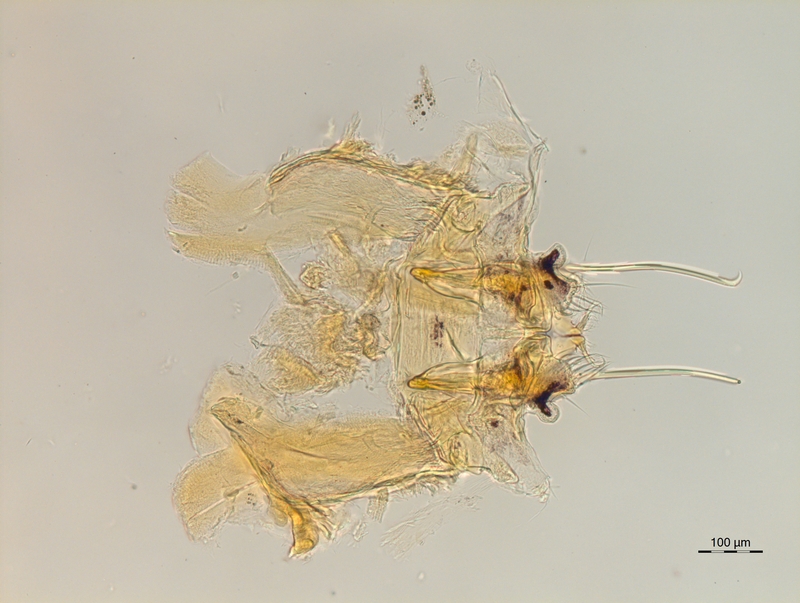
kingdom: Animalia
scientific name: Animalia
